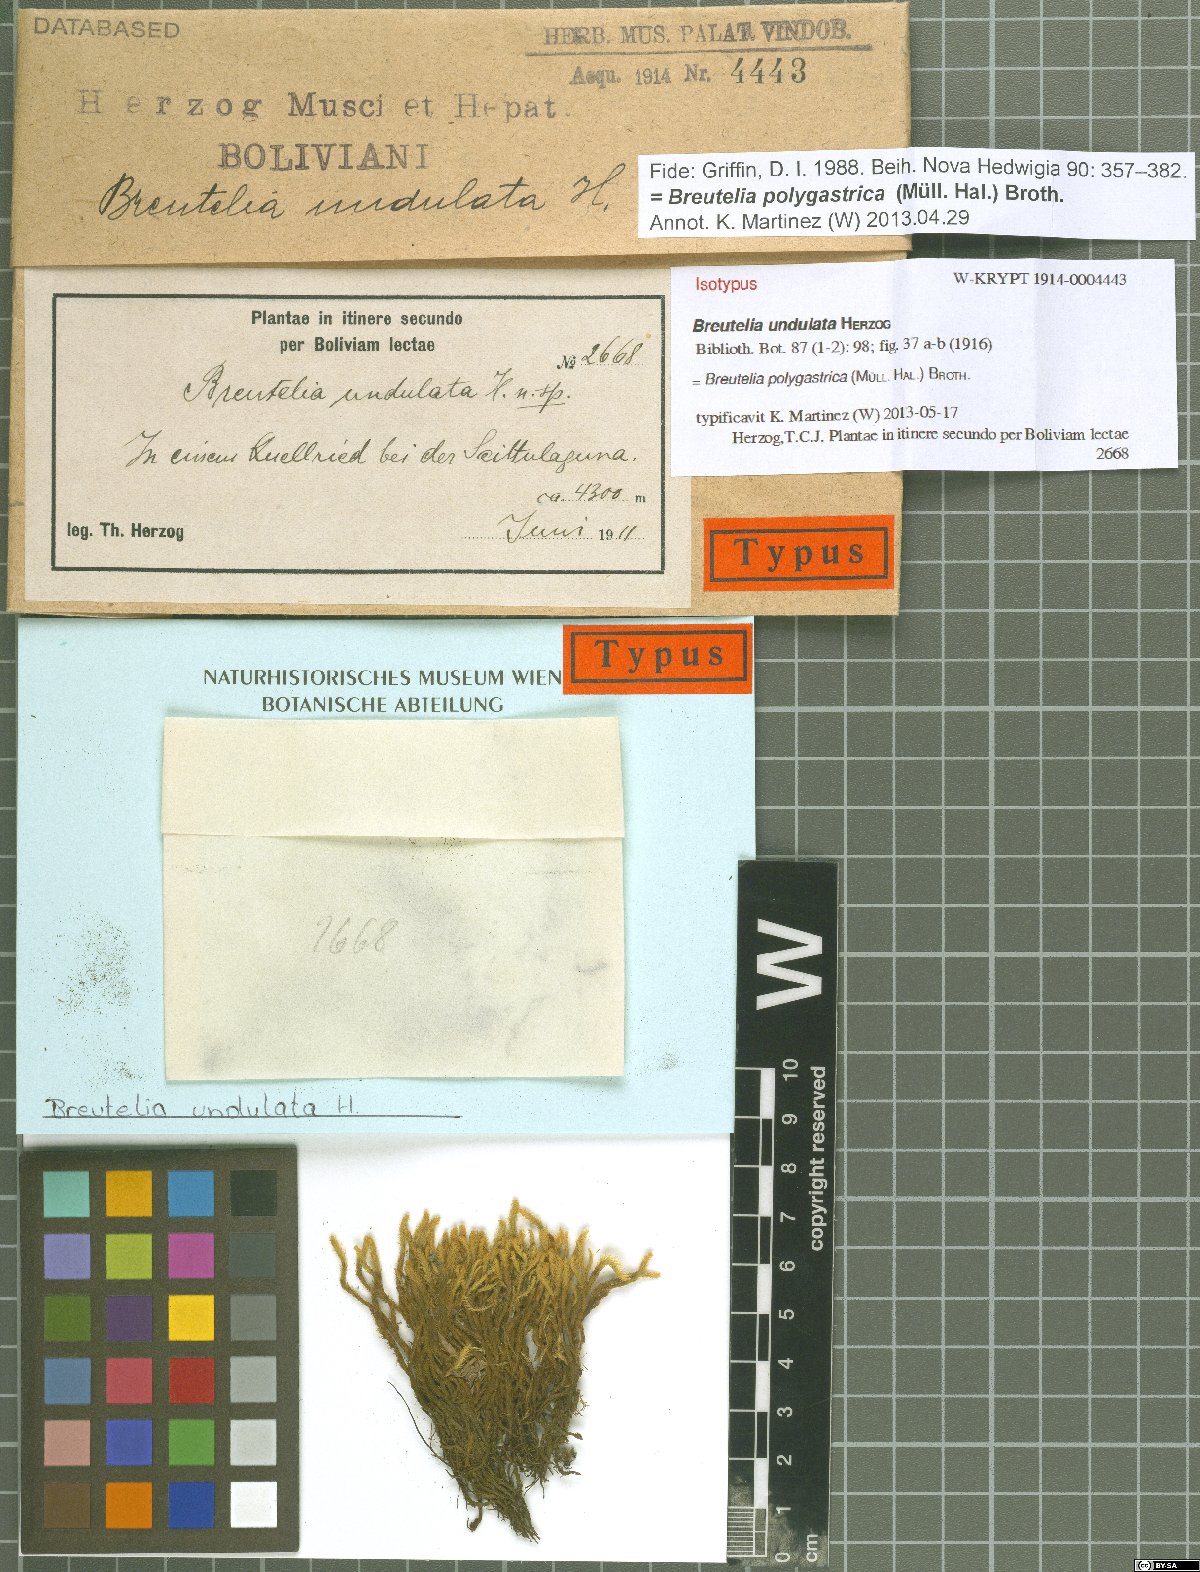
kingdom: Plantae
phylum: Bryophyta
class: Bryopsida
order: Bartramiales
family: Bartramiaceae
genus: Breutelia
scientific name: Breutelia polygastrica
